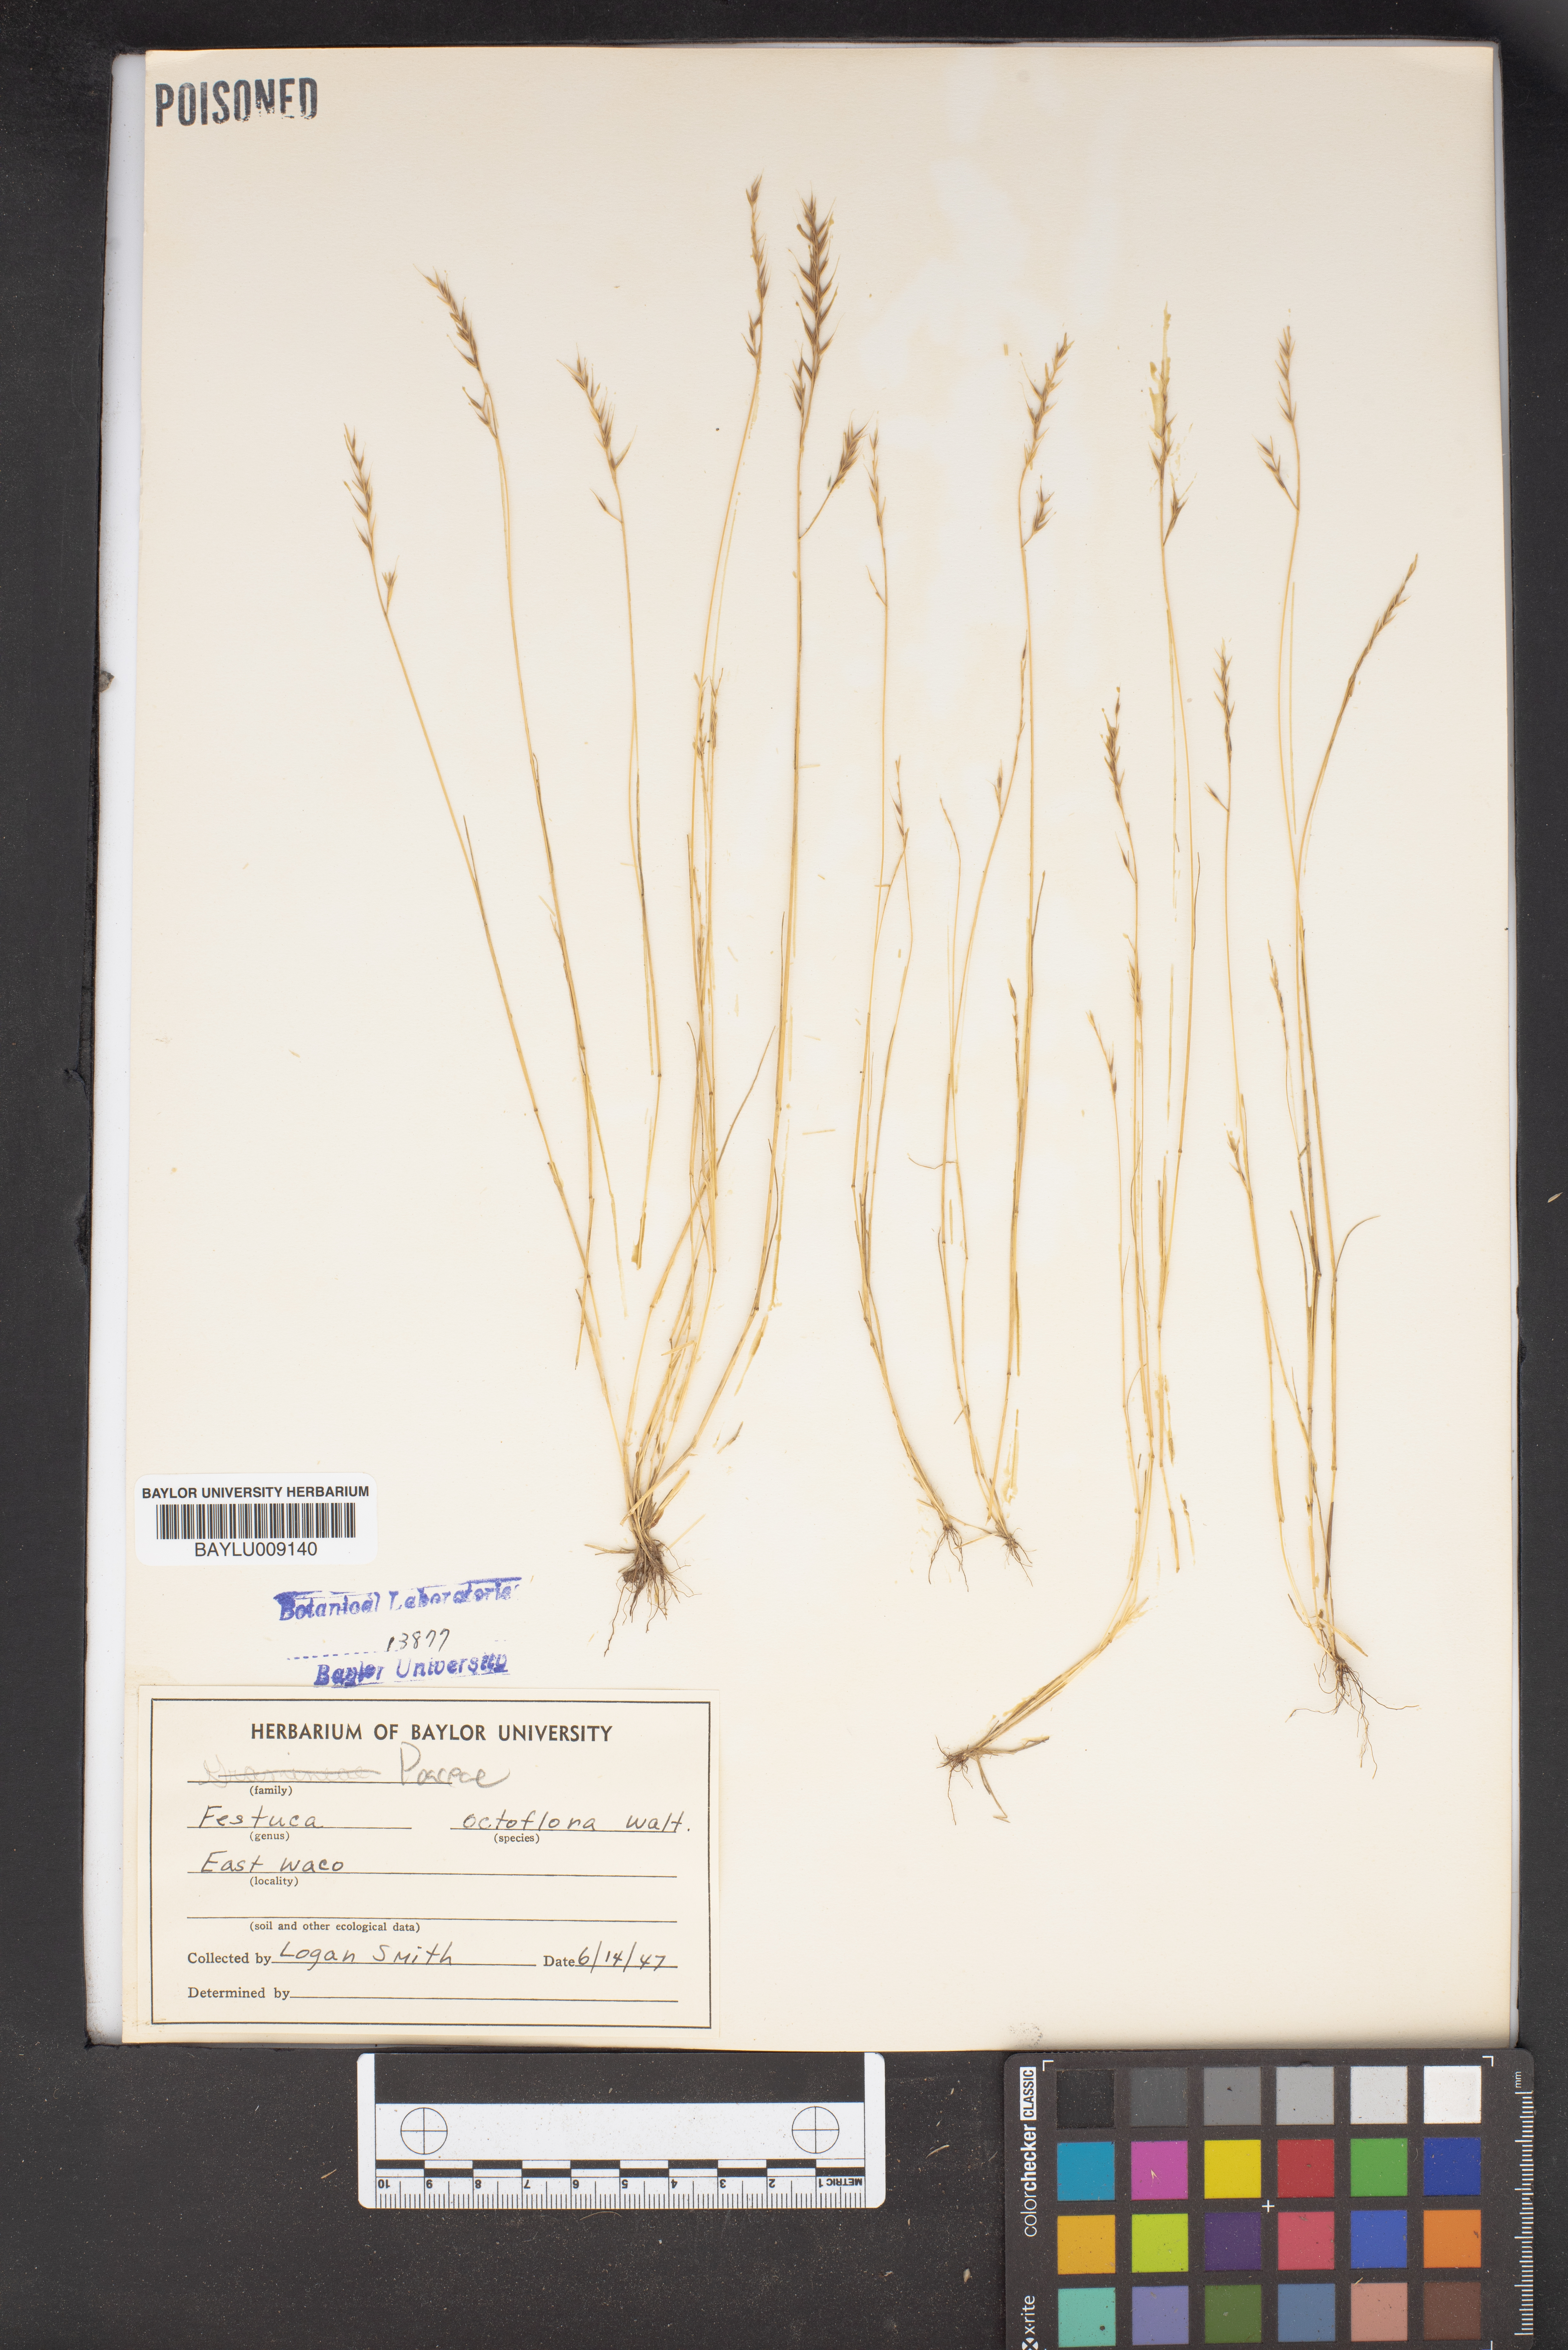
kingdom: Plantae
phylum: Tracheophyta
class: Liliopsida
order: Poales
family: Poaceae
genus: Festuca
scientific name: Festuca octoflora
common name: Sixweeks grass
